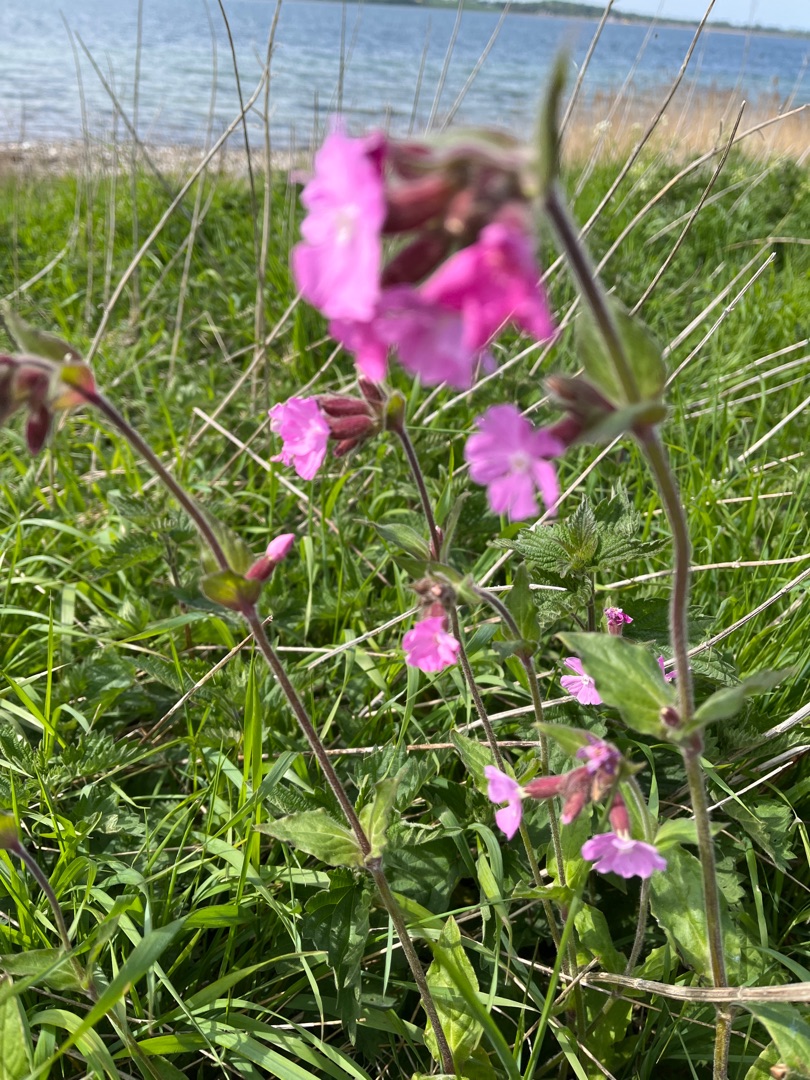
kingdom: Plantae
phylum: Tracheophyta
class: Magnoliopsida
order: Caryophyllales
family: Caryophyllaceae
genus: Silene
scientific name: Silene dioica
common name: Dagpragtstjerne
